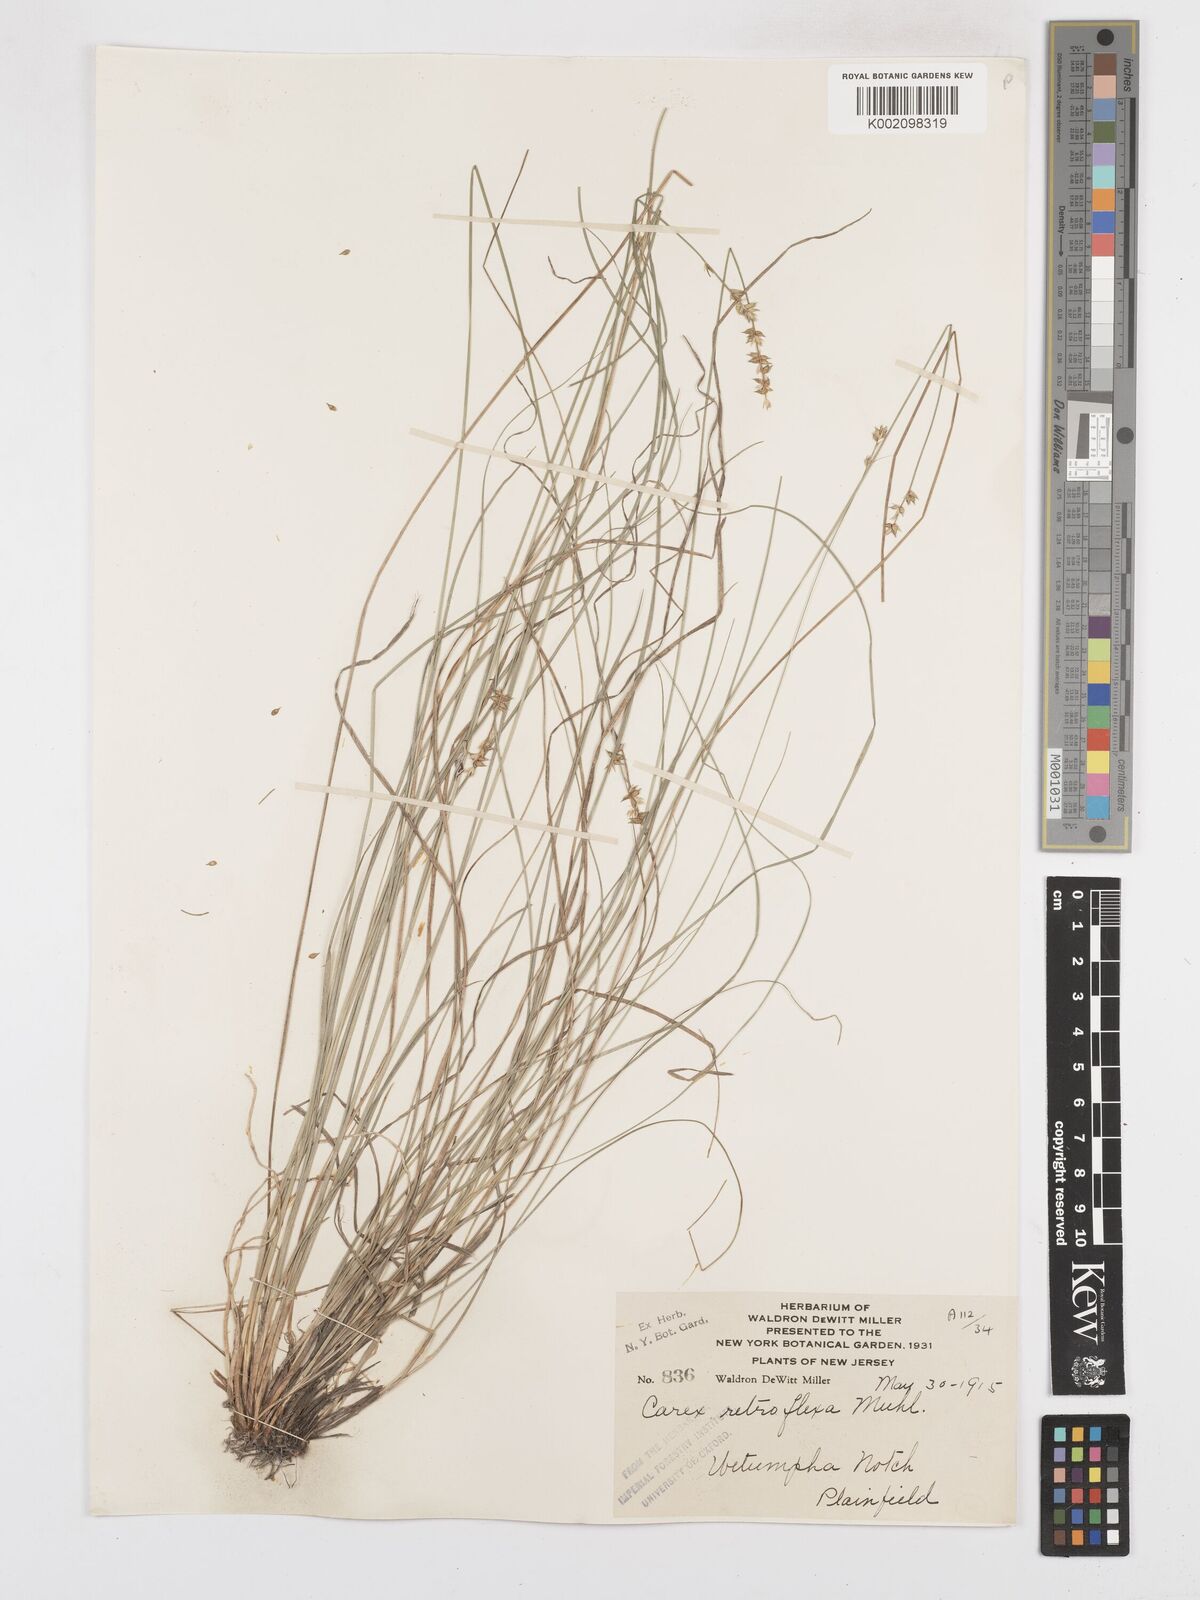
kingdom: Plantae
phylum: Tracheophyta
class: Liliopsida
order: Poales
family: Cyperaceae
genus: Carex
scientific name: Carex retroflexa
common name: Reflexed sedge
